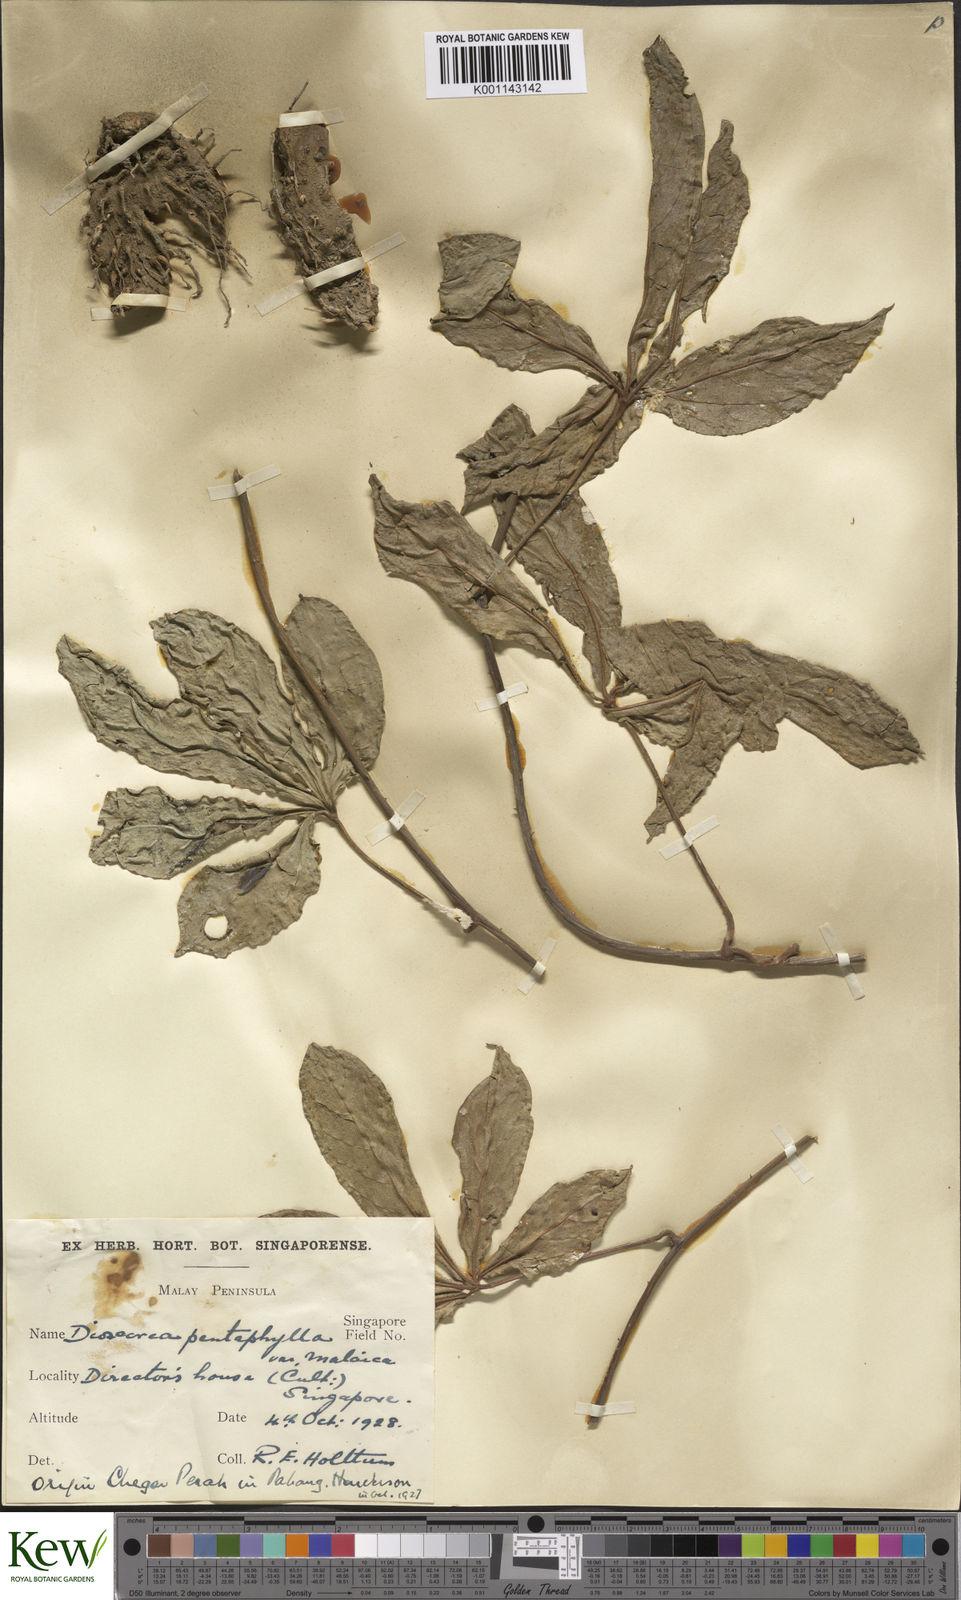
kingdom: Plantae
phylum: Tracheophyta
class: Liliopsida
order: Dioscoreales
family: Dioscoreaceae
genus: Dioscorea
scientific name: Dioscorea pentaphylla
